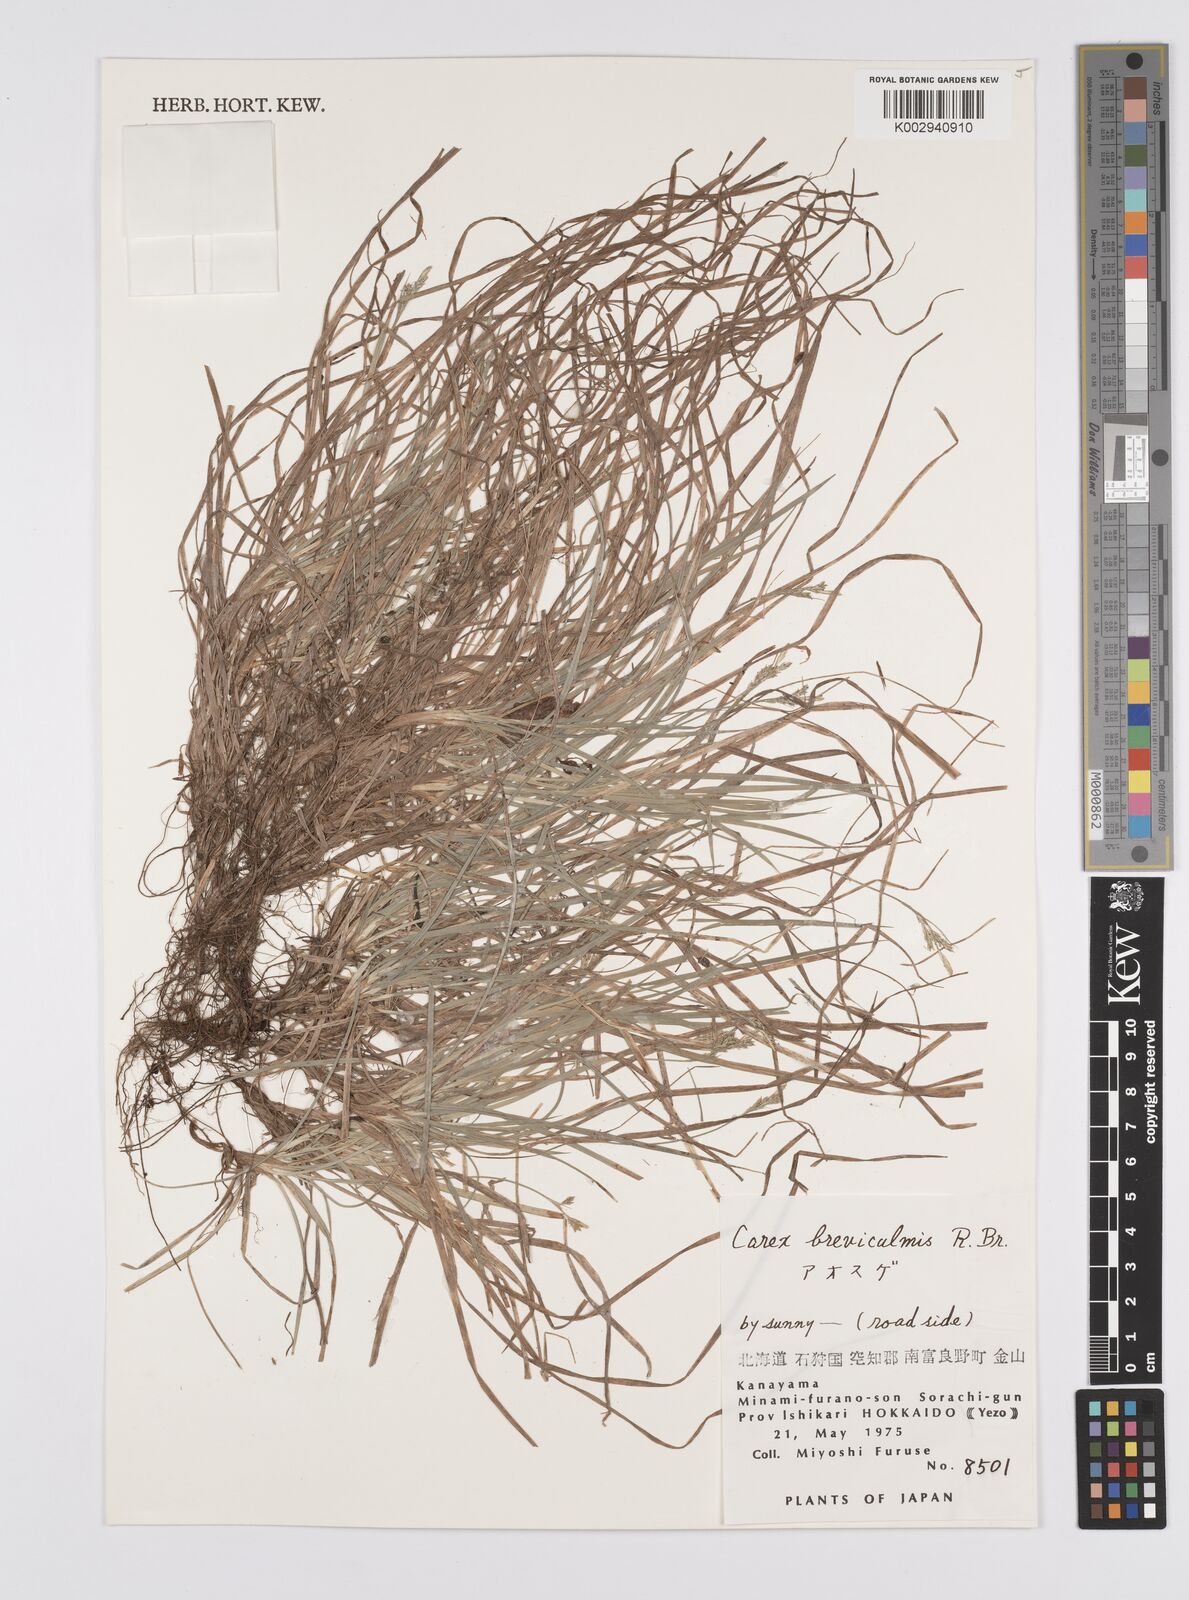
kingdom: Plantae
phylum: Tracheophyta
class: Liliopsida
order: Poales
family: Cyperaceae
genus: Carex
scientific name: Carex breviculmis
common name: Asian shortstem sedge
